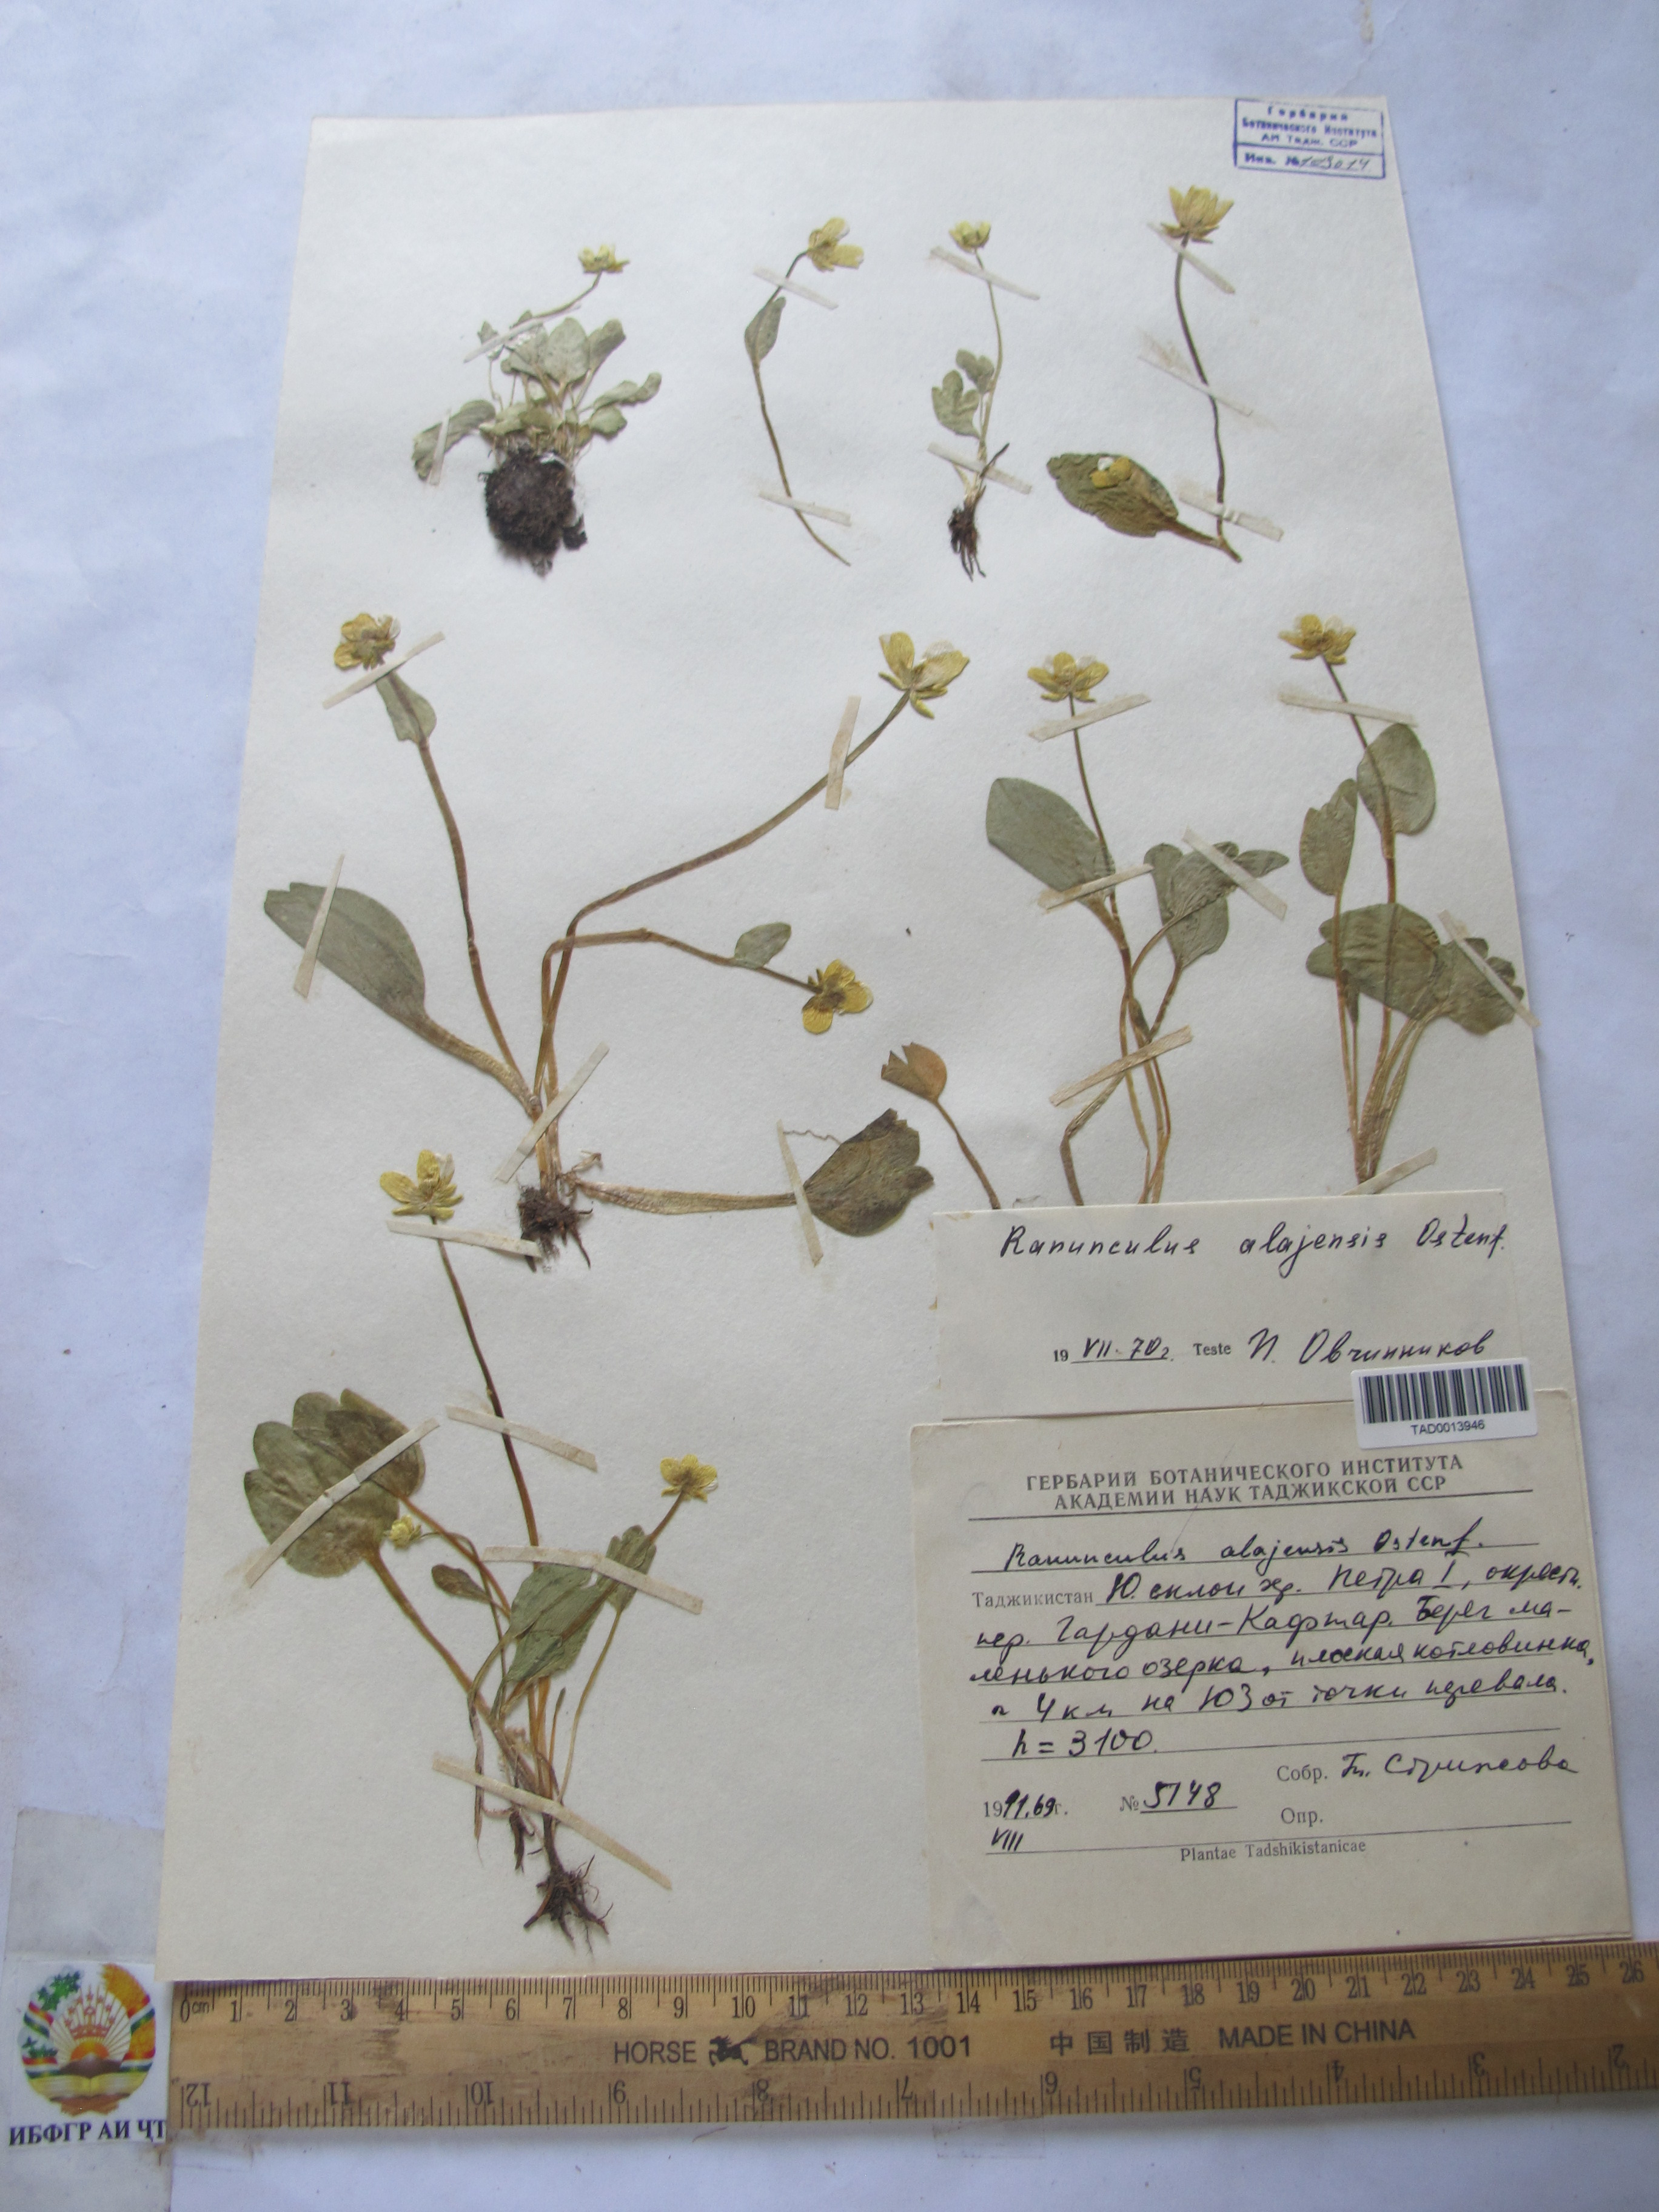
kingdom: Plantae
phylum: Tracheophyta
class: Magnoliopsida
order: Ranunculales
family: Ranunculaceae
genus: Ranunculus
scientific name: Ranunculus alaiensis
